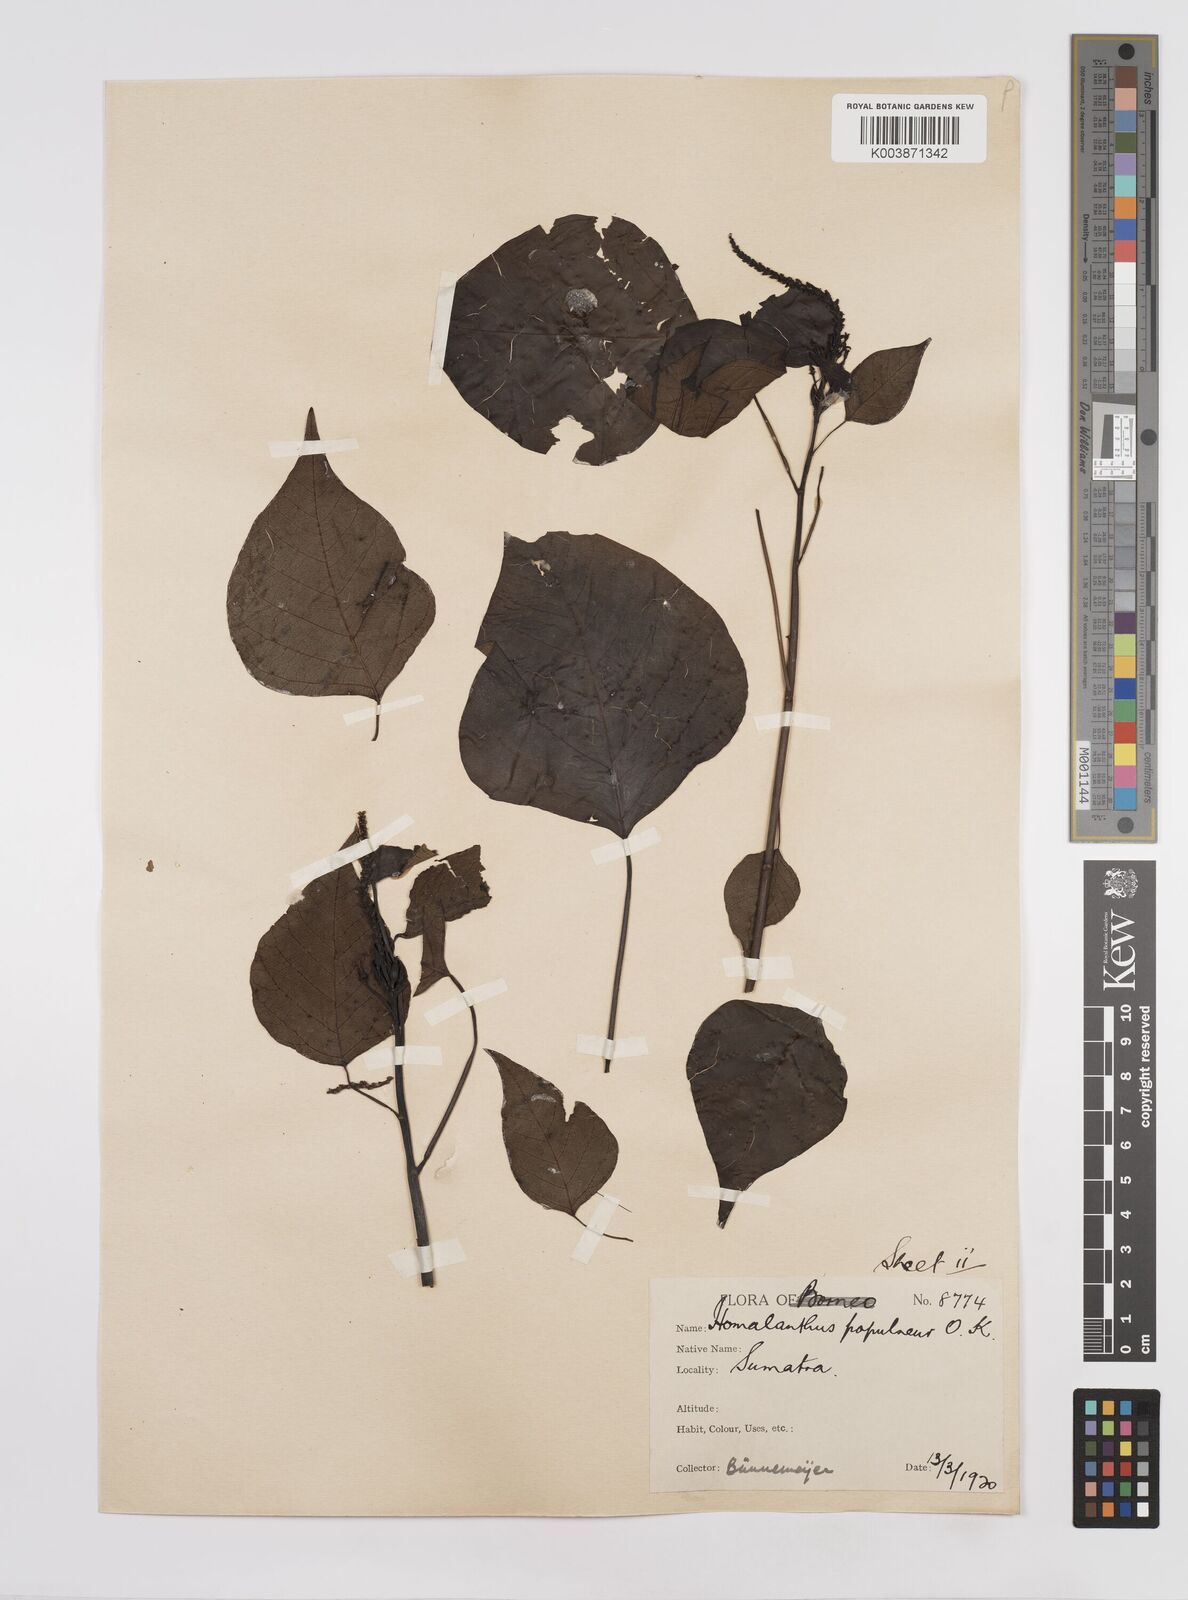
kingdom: Plantae
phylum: Tracheophyta
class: Magnoliopsida
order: Malpighiales
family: Euphorbiaceae
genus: Homalanthus
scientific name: Homalanthus populneus
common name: Spurge
